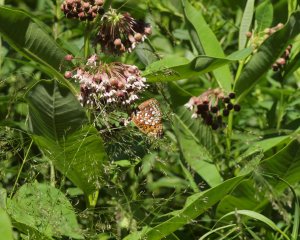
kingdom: Animalia
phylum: Arthropoda
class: Insecta
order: Lepidoptera
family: Nymphalidae
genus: Speyeria
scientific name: Speyeria aphrodite
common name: Aphrodite Fritillary
